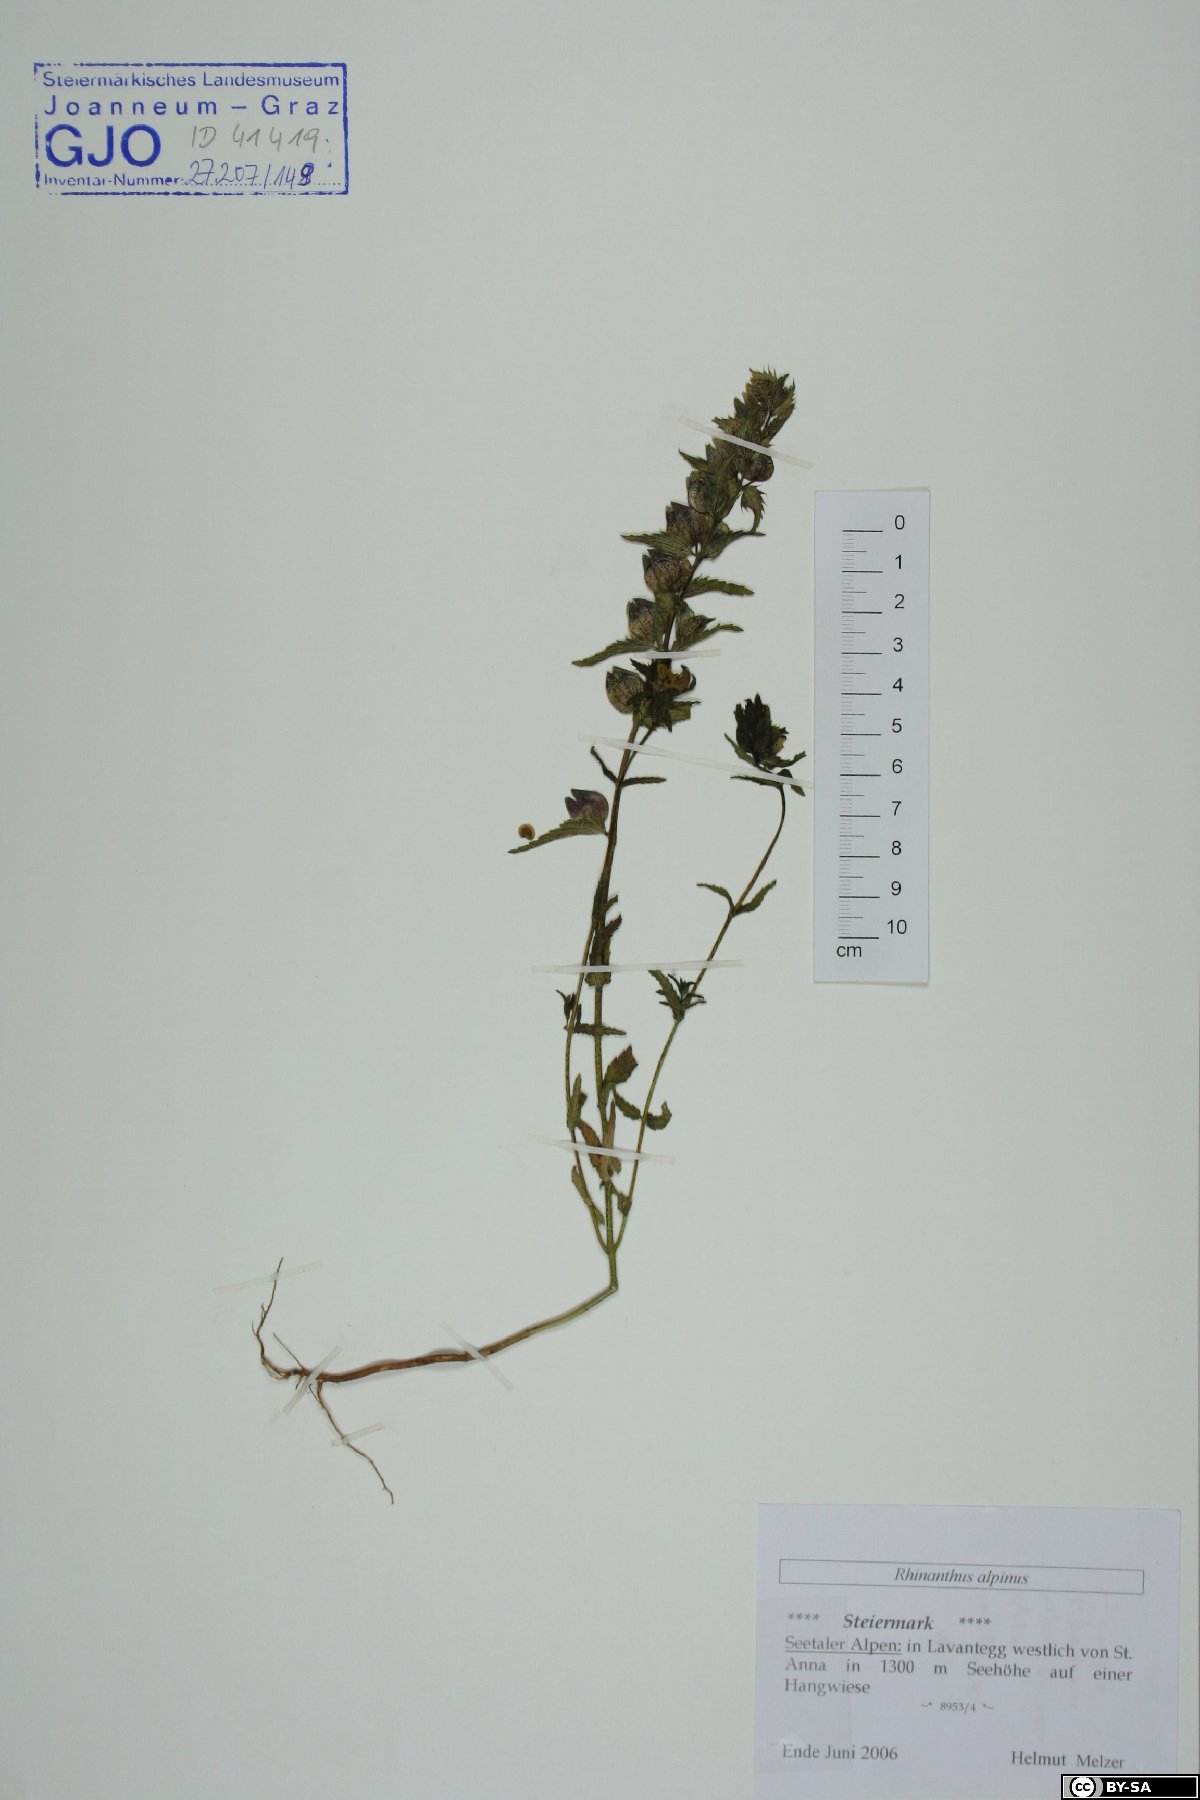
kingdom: Plantae
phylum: Tracheophyta
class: Magnoliopsida
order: Lamiales
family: Orobanchaceae
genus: Rhinanthus
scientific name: Rhinanthus riphaeus
